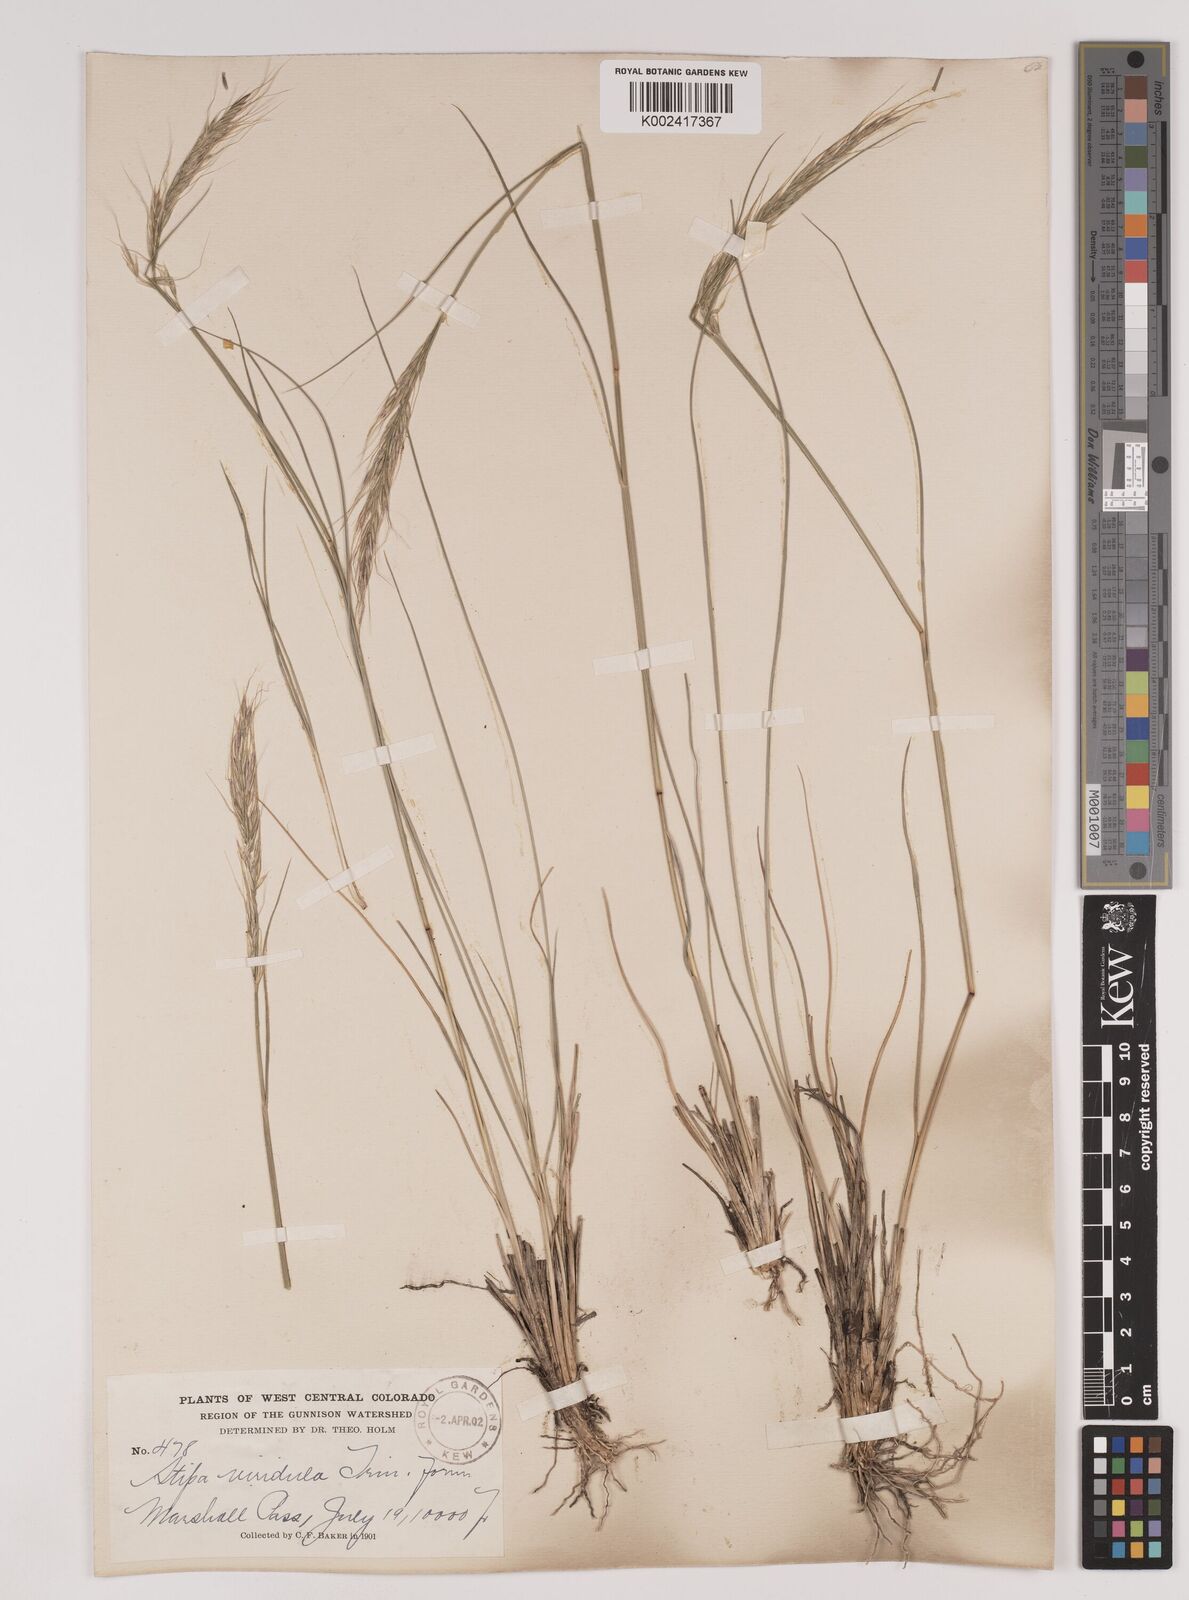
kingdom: Plantae
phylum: Tracheophyta
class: Liliopsida
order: Poales
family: Poaceae
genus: Nassella
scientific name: Nassella viridula
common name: Green needlegrass
